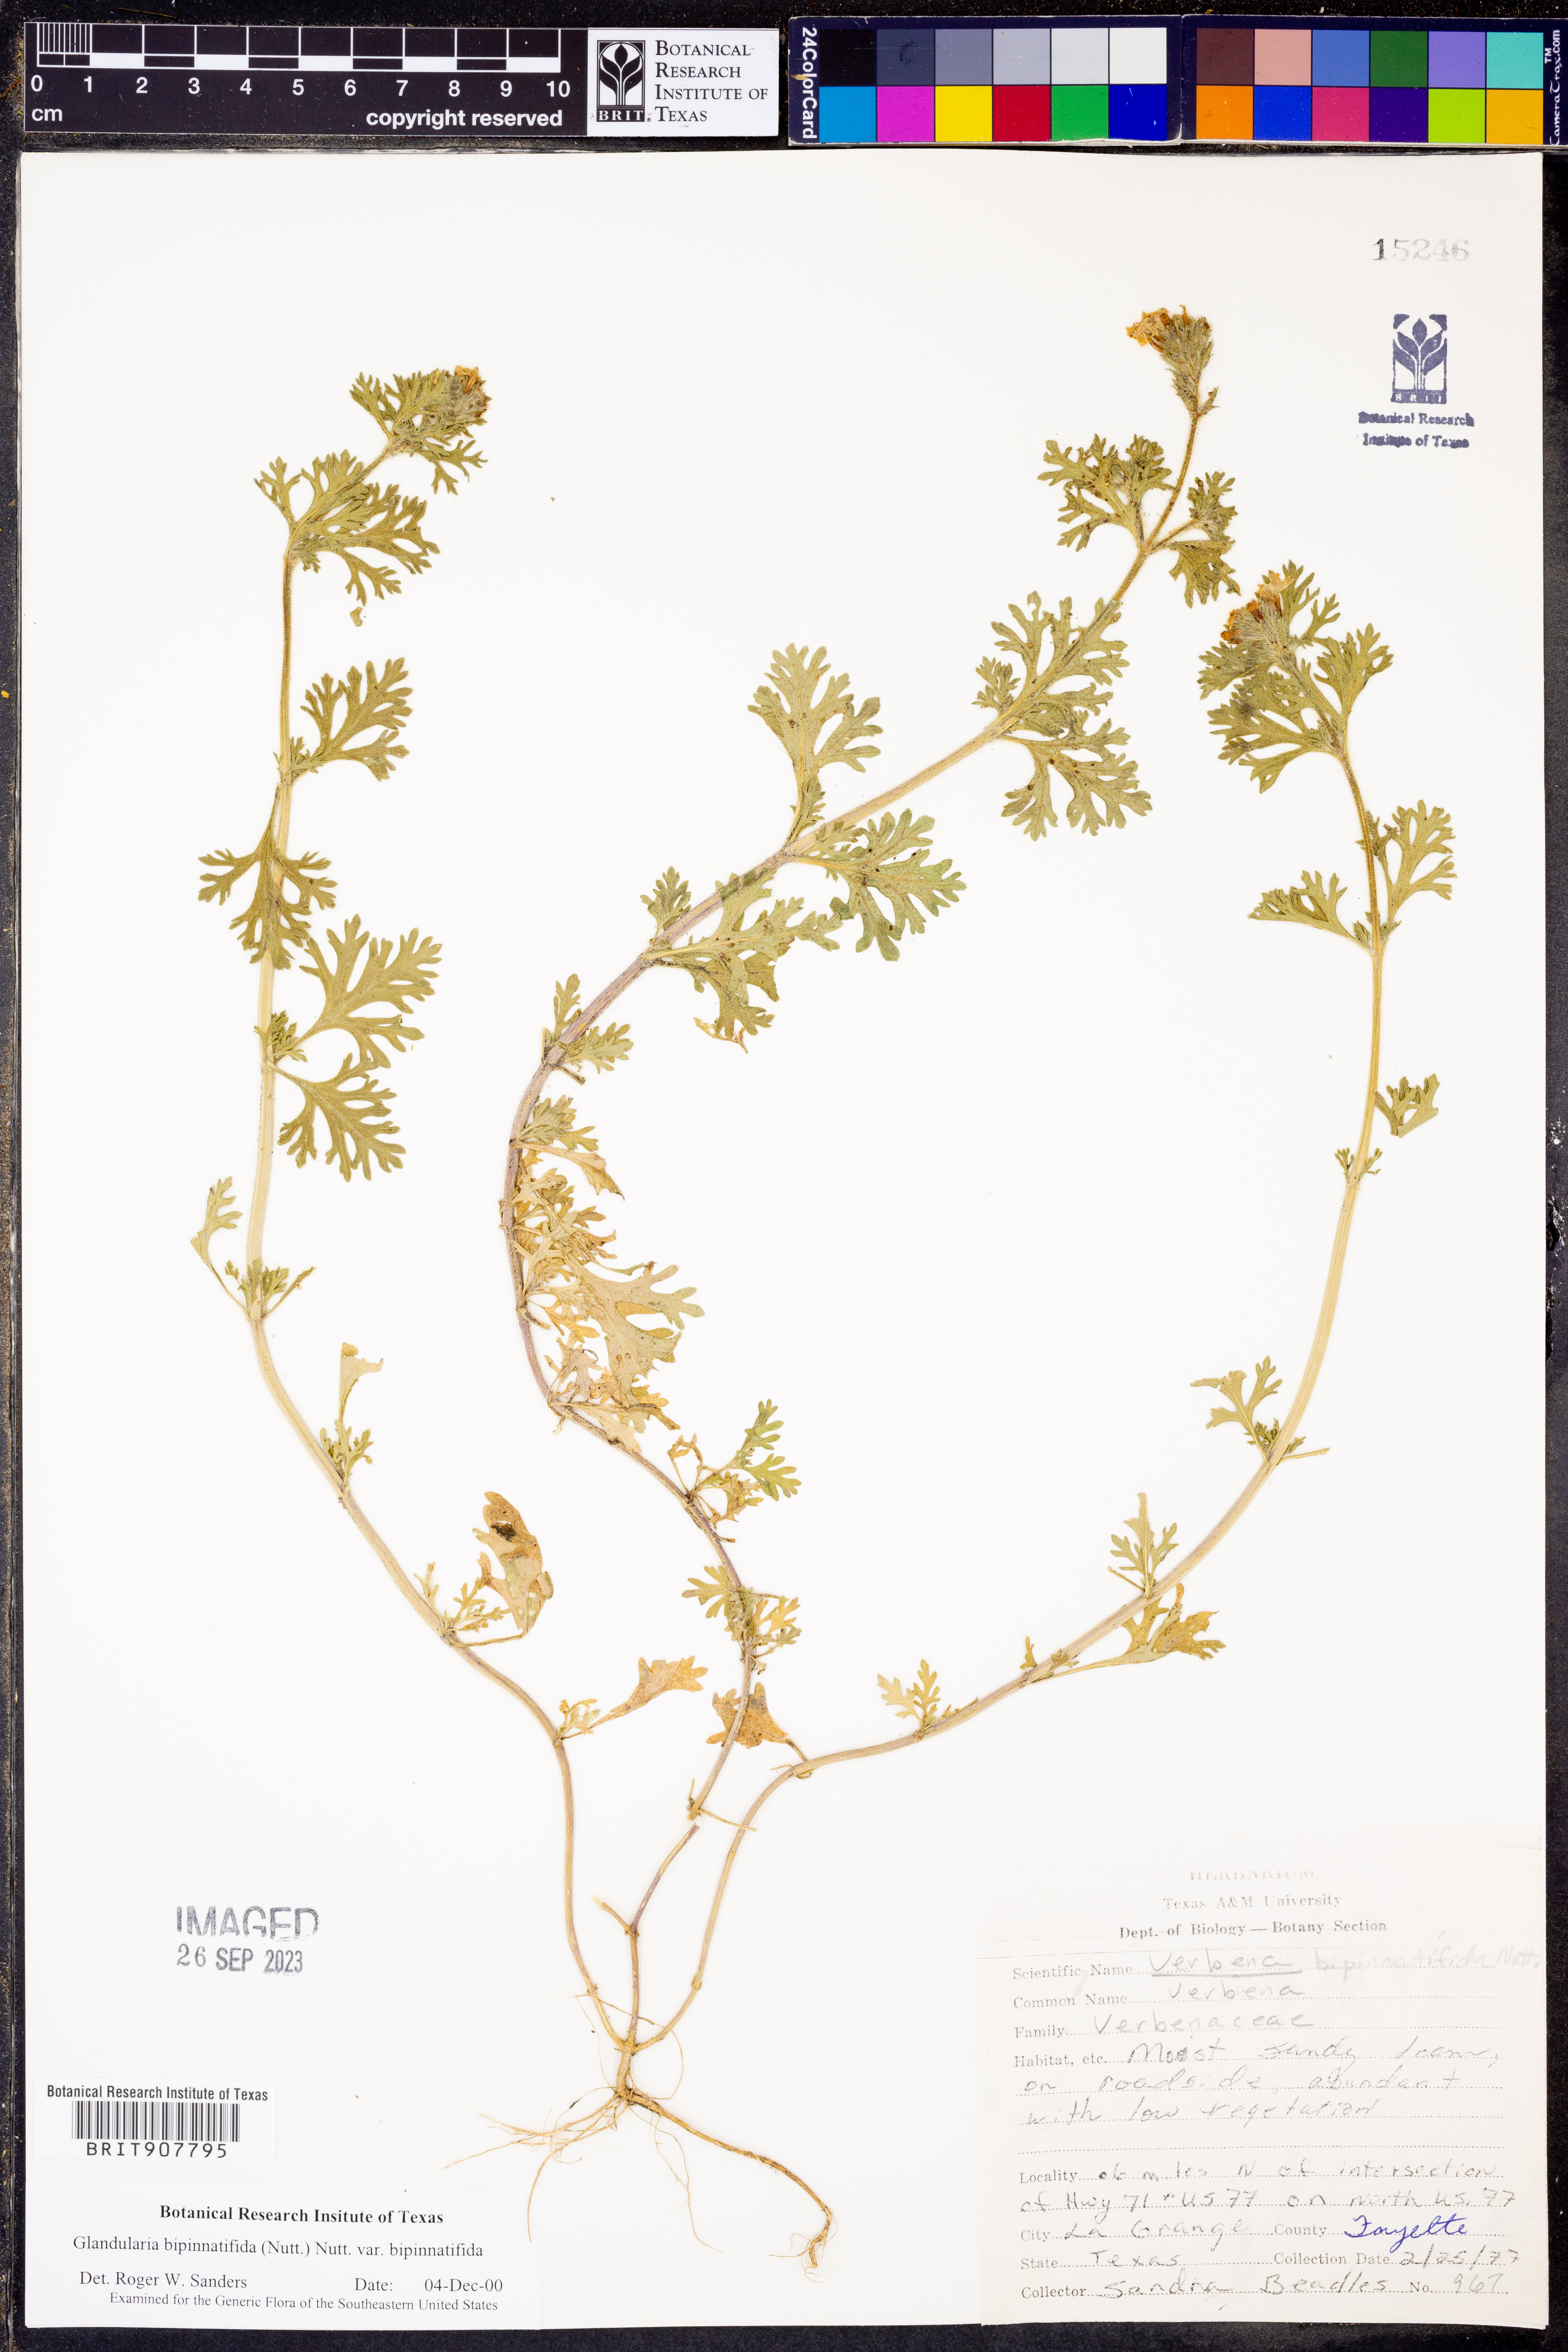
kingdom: Plantae
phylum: Tracheophyta
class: Magnoliopsida
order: Lamiales
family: Verbenaceae
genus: Verbena
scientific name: Verbena bipinnatifida
